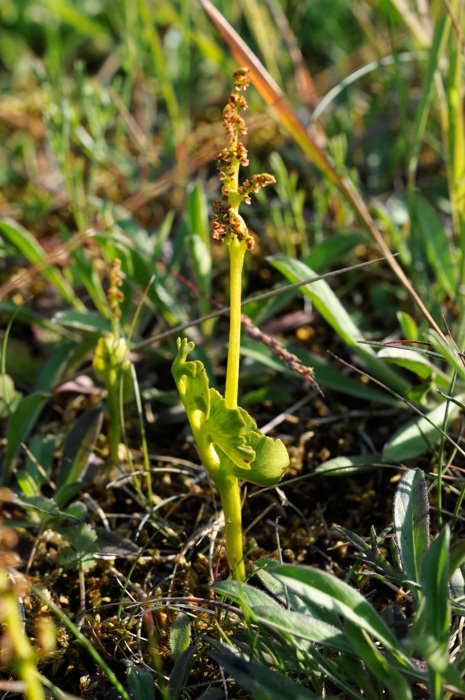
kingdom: Plantae
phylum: Tracheophyta
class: Polypodiopsida
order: Ophioglossales
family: Ophioglossaceae
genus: Botrychium
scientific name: Botrychium lunaria
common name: Moonwort
